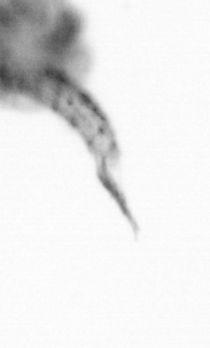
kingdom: Animalia
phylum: Arthropoda
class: Copepoda
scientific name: Copepoda
